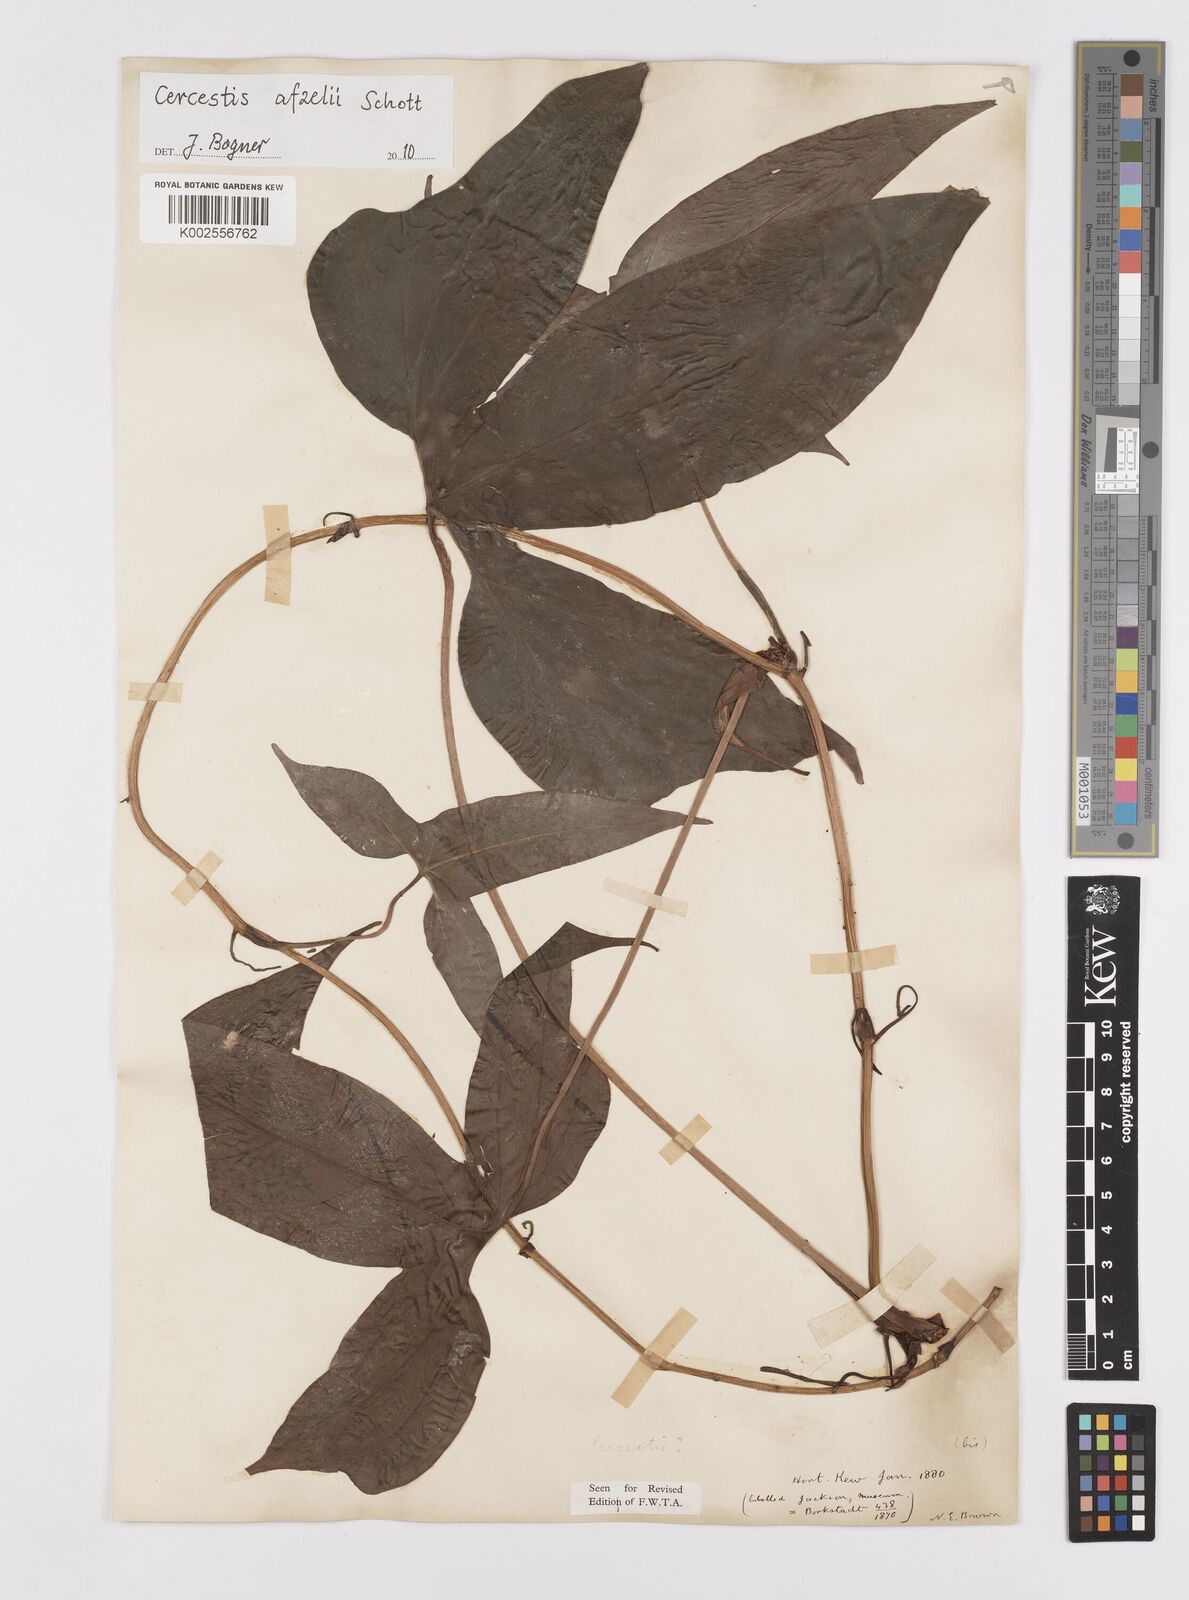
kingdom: Plantae
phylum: Tracheophyta
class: Liliopsida
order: Alismatales
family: Araceae
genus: Cercestis
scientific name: Cercestis afzelii
